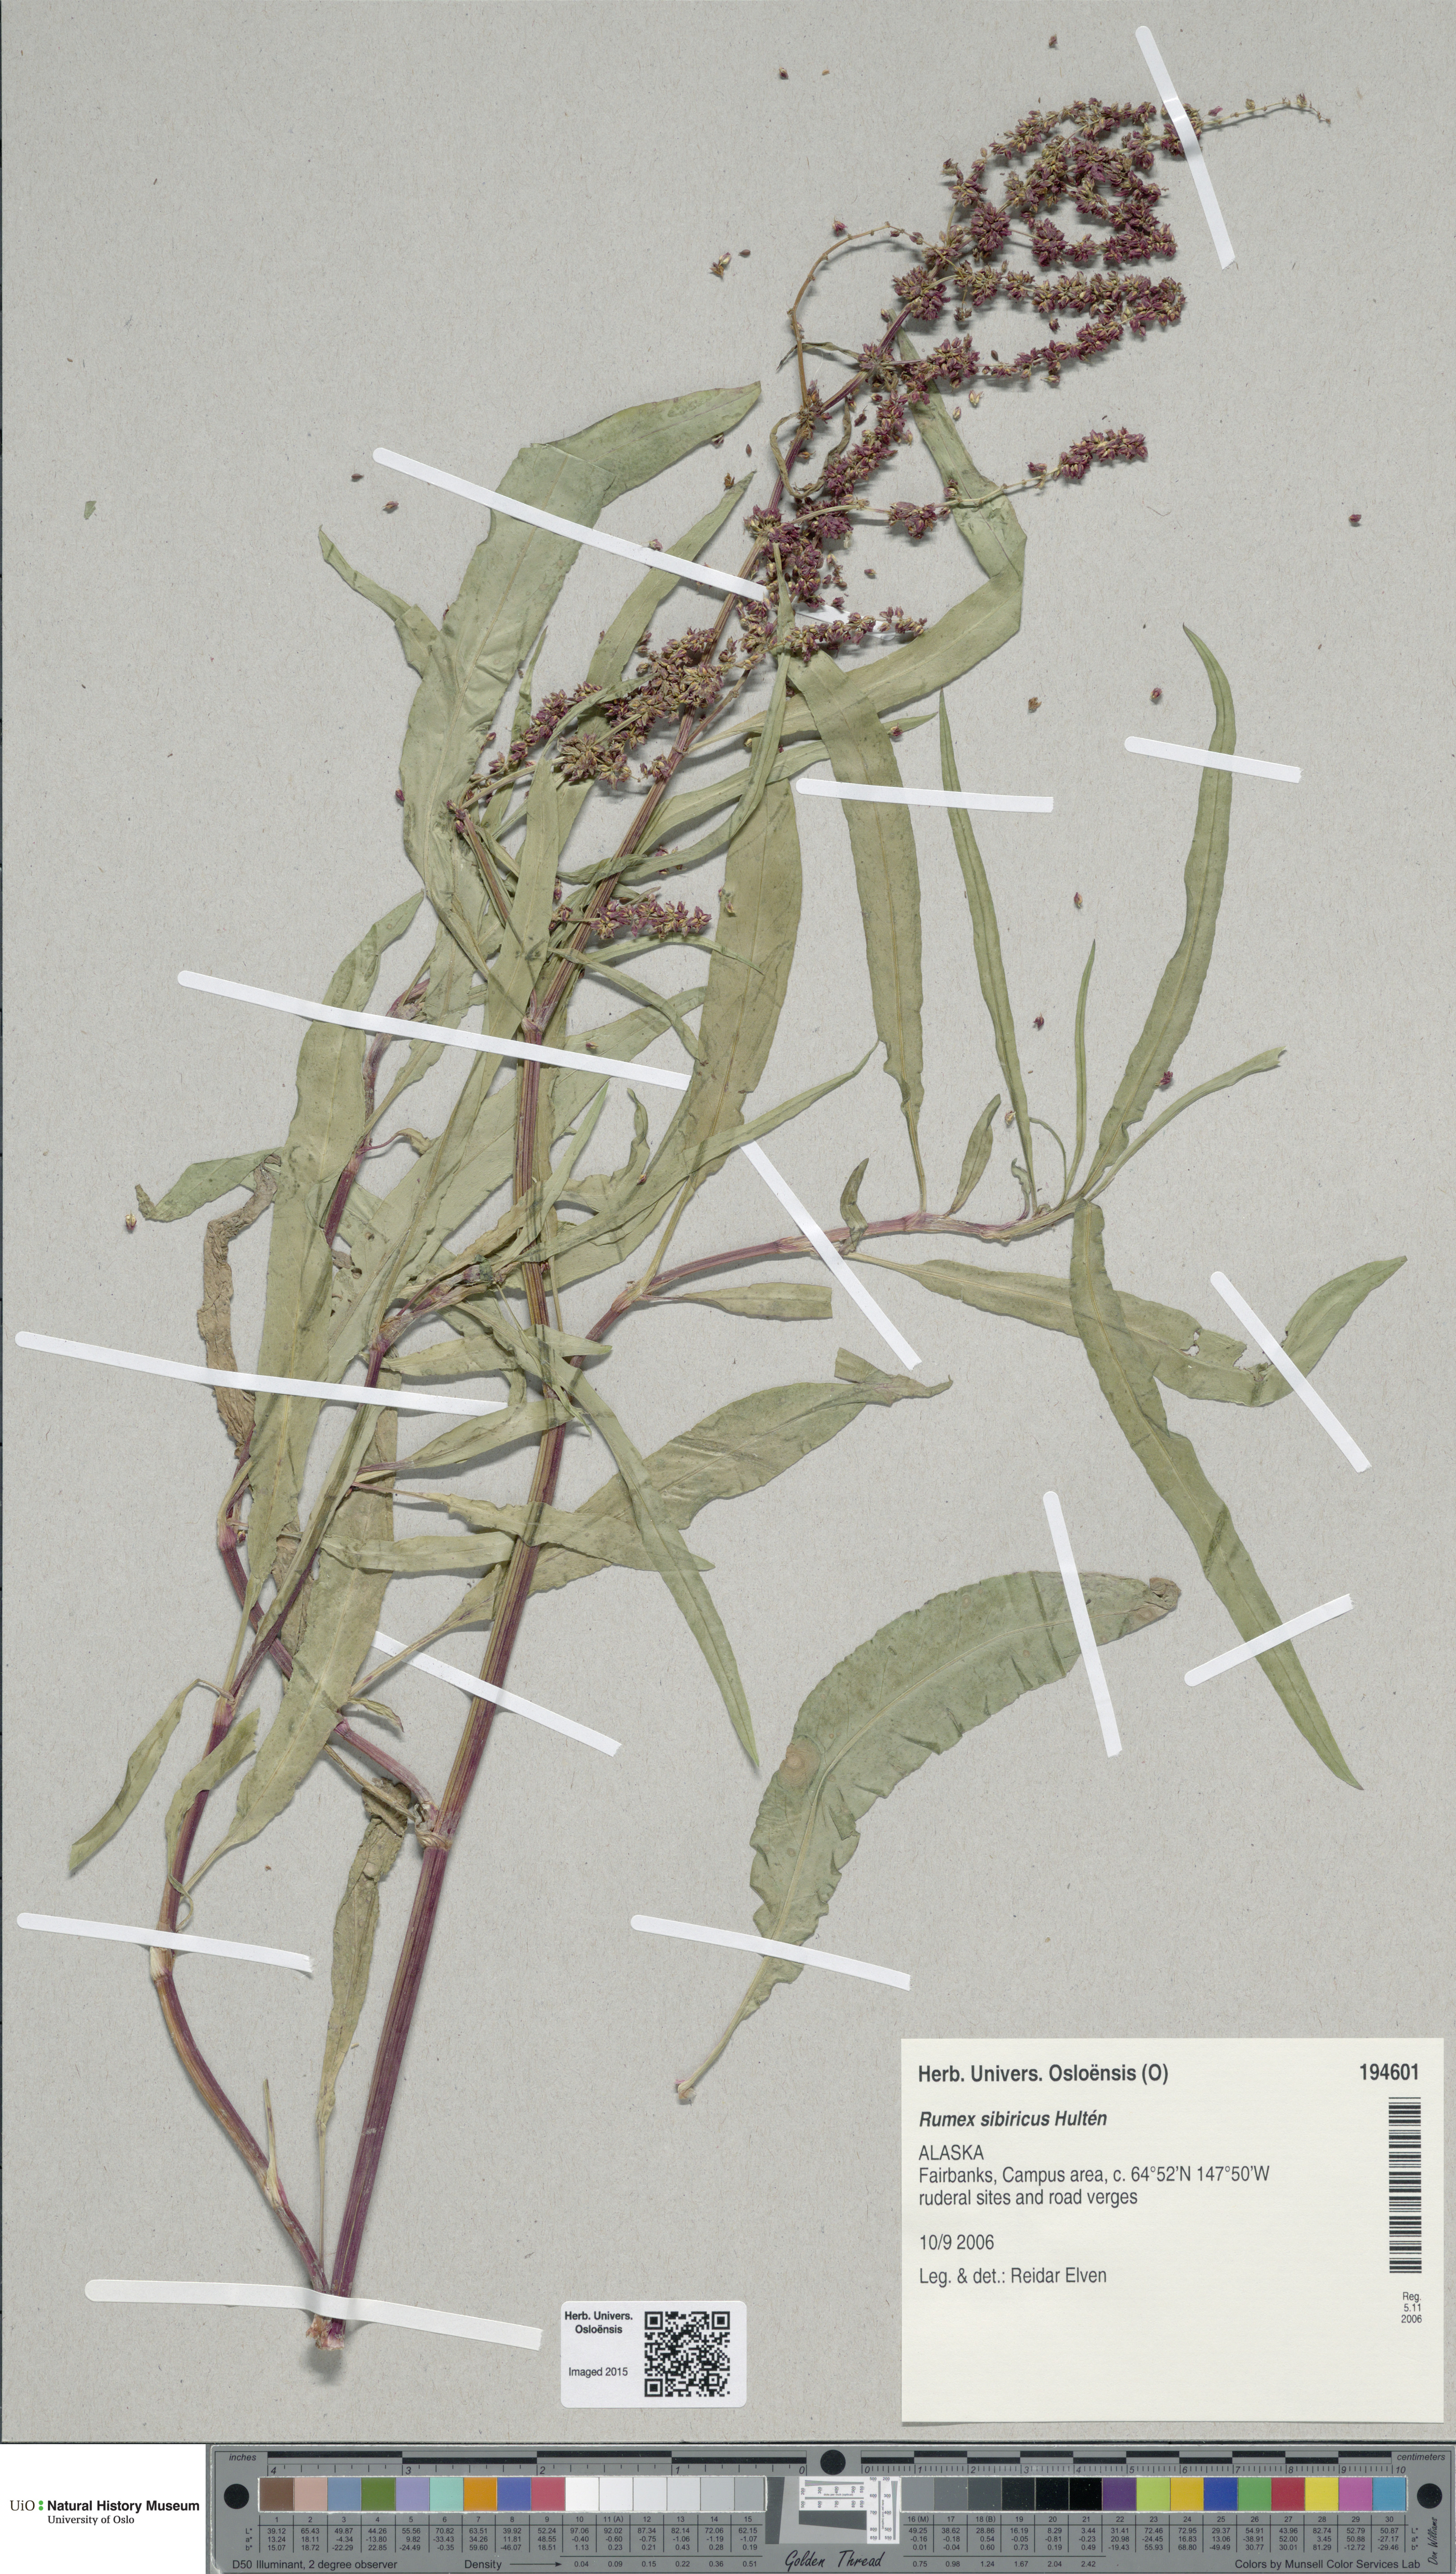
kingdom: Plantae
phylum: Tracheophyta
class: Magnoliopsida
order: Caryophyllales
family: Polygonaceae
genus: Rumex
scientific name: Rumex sibiricus
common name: Siberian dock
